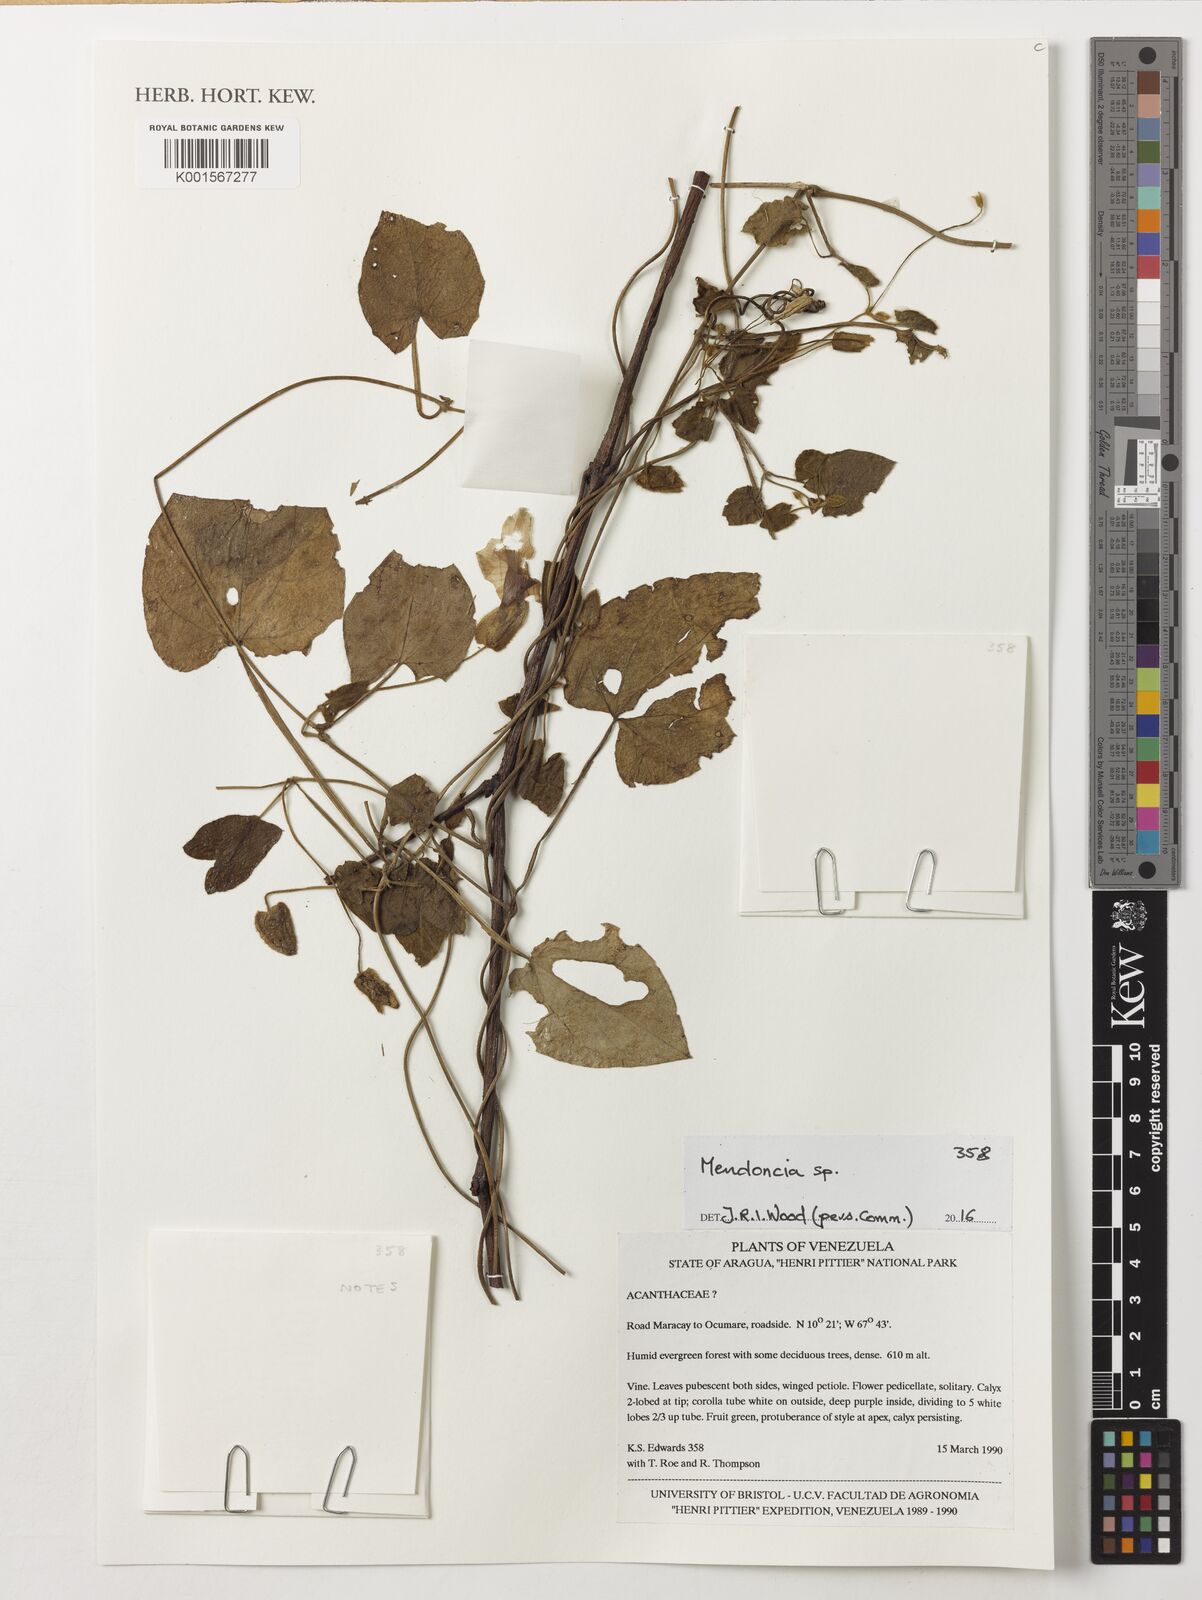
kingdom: Plantae
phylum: Tracheophyta
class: Magnoliopsida
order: Lamiales
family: Acanthaceae
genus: Mendoncia
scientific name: Mendoncia
